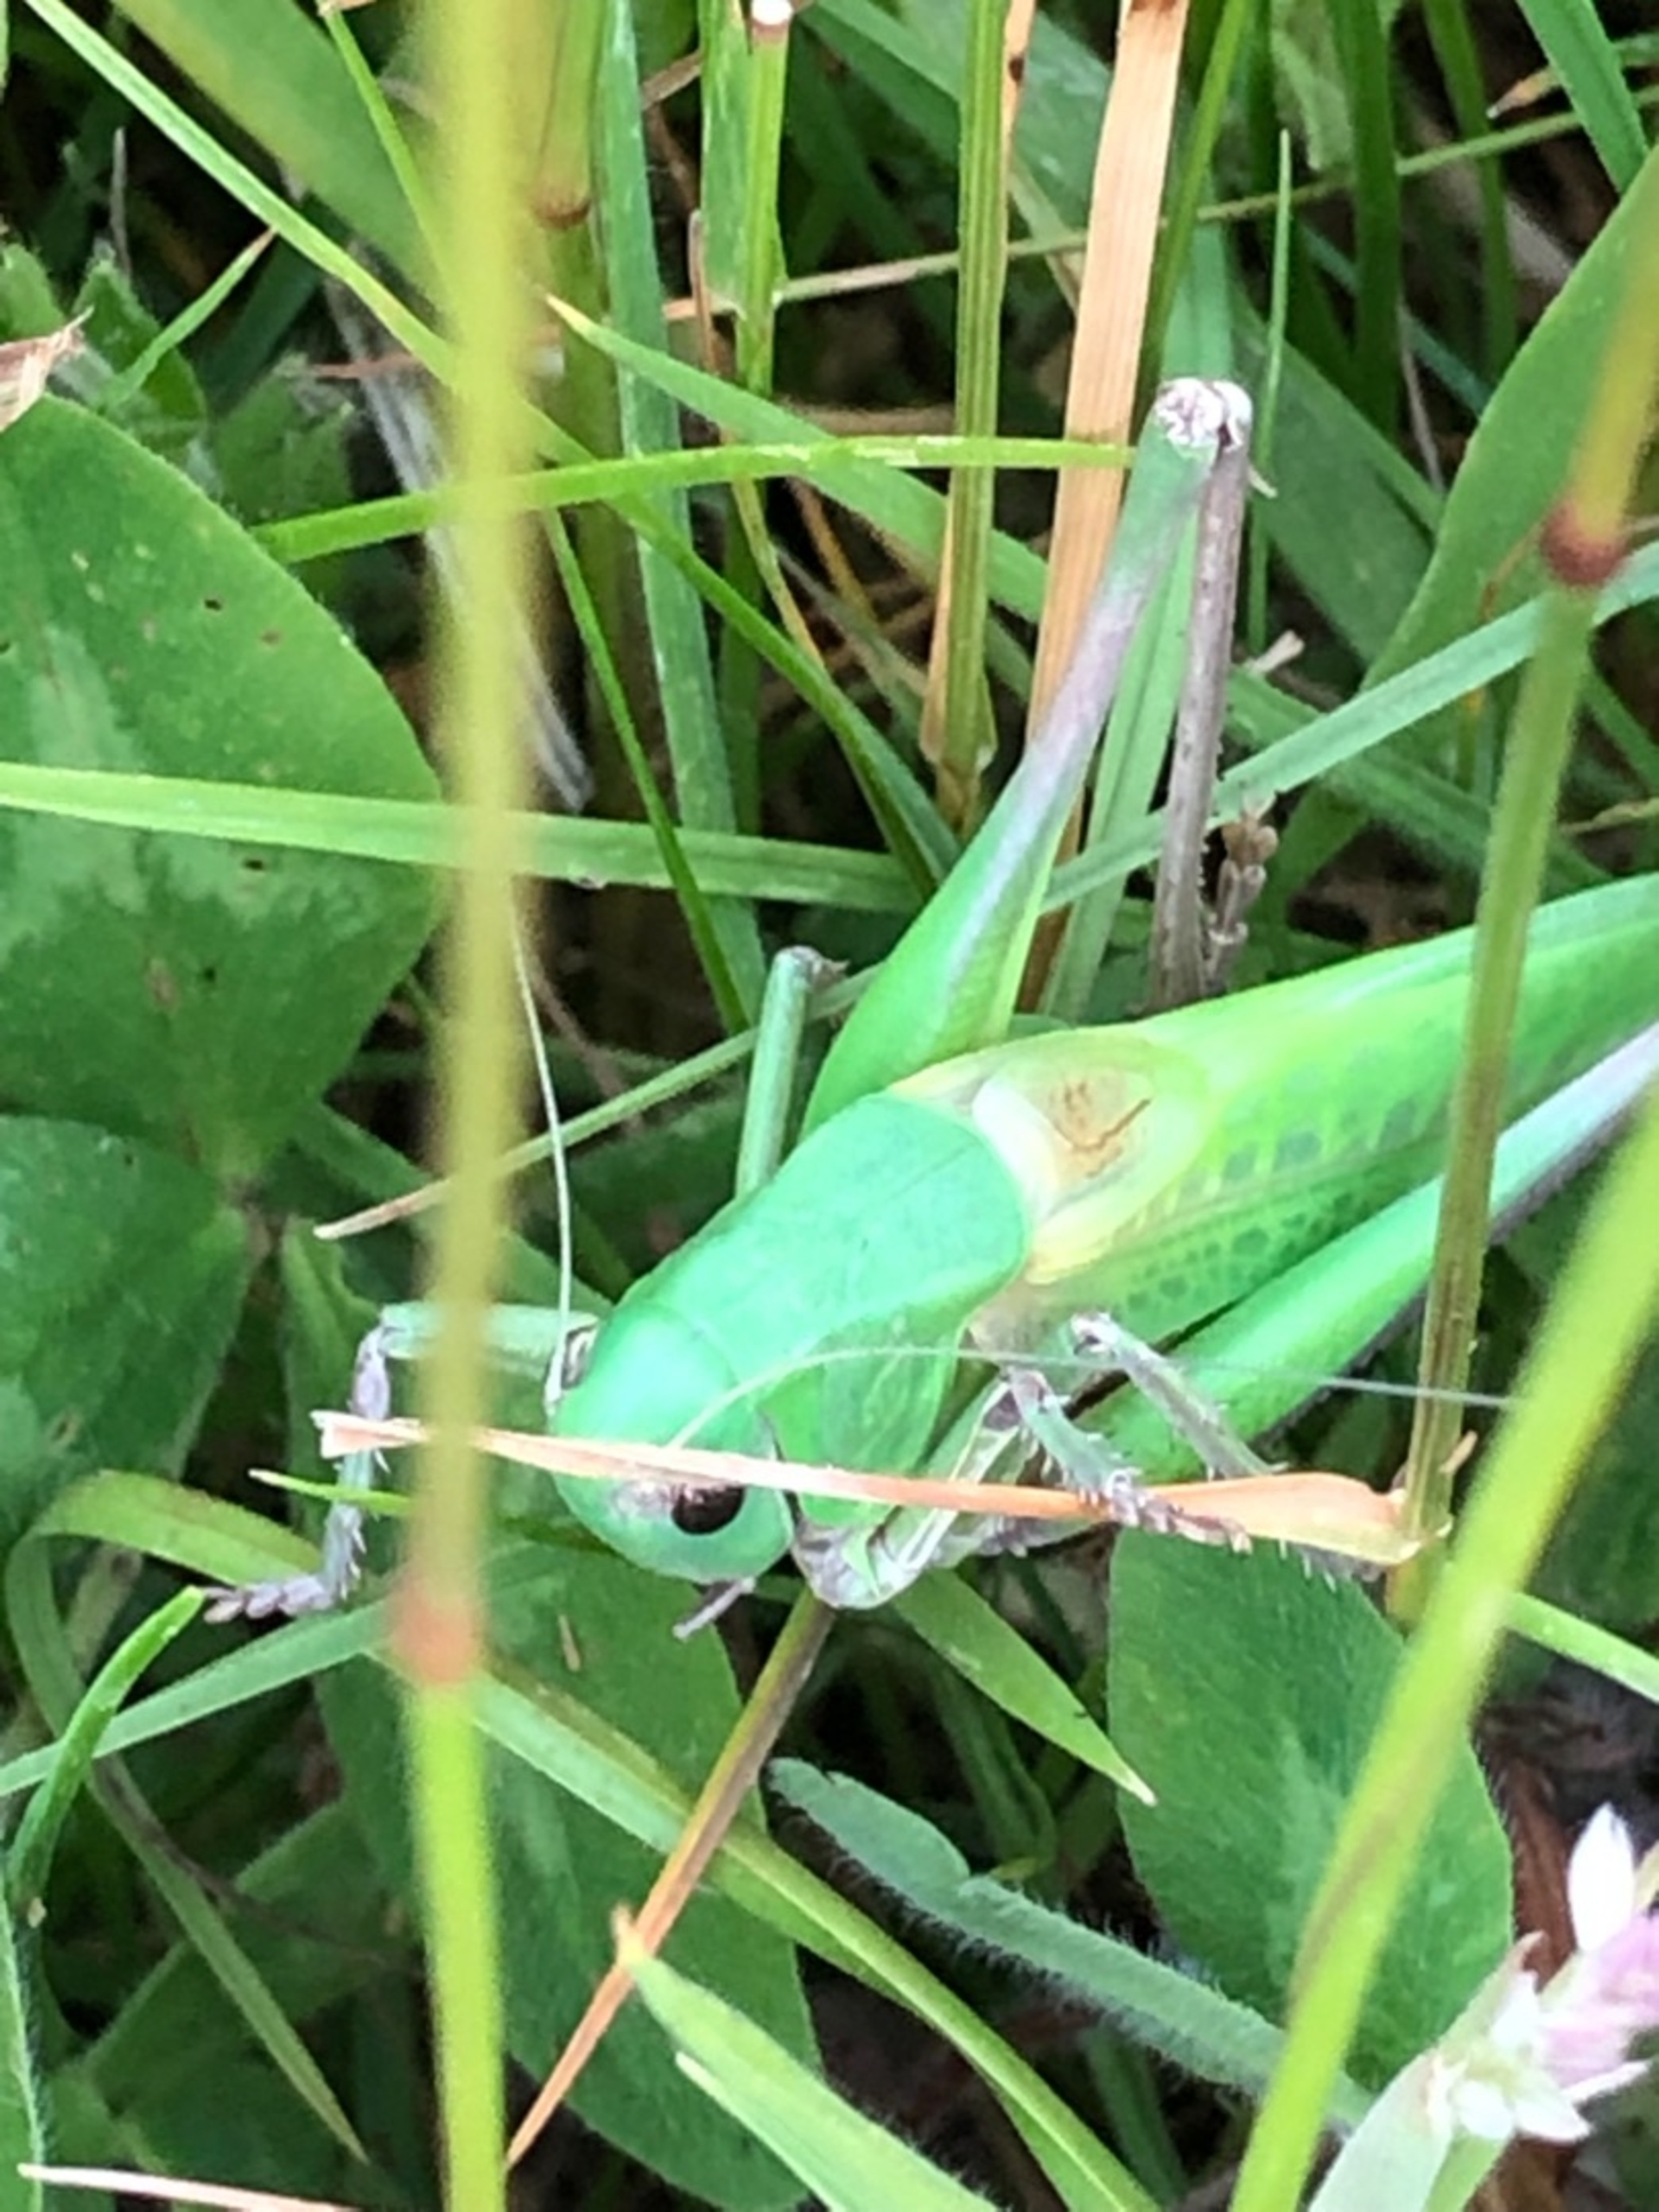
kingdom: Animalia
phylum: Arthropoda
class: Insecta
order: Orthoptera
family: Tettigoniidae
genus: Decticus
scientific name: Decticus verrucivorus
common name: Vortebider
